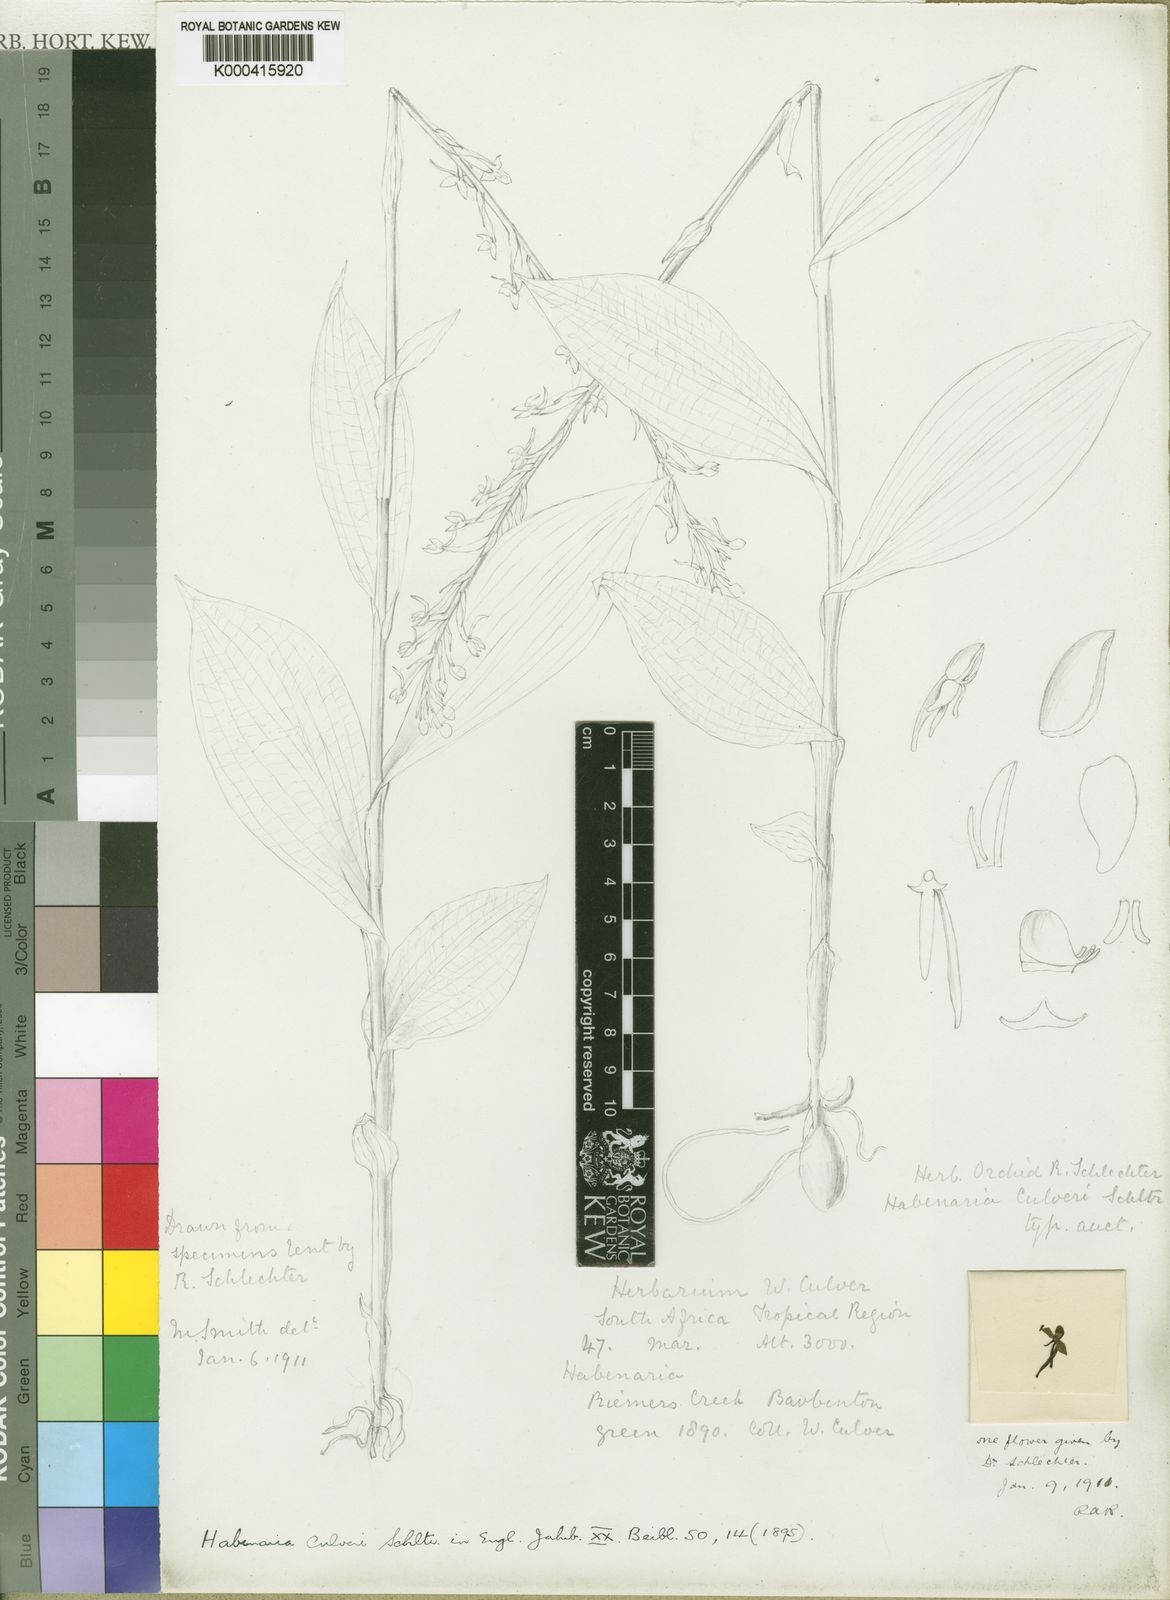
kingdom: Plantae
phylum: Tracheophyta
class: Liliopsida
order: Asparagales
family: Orchidaceae
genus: Habenaria
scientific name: Habenaria culveri
